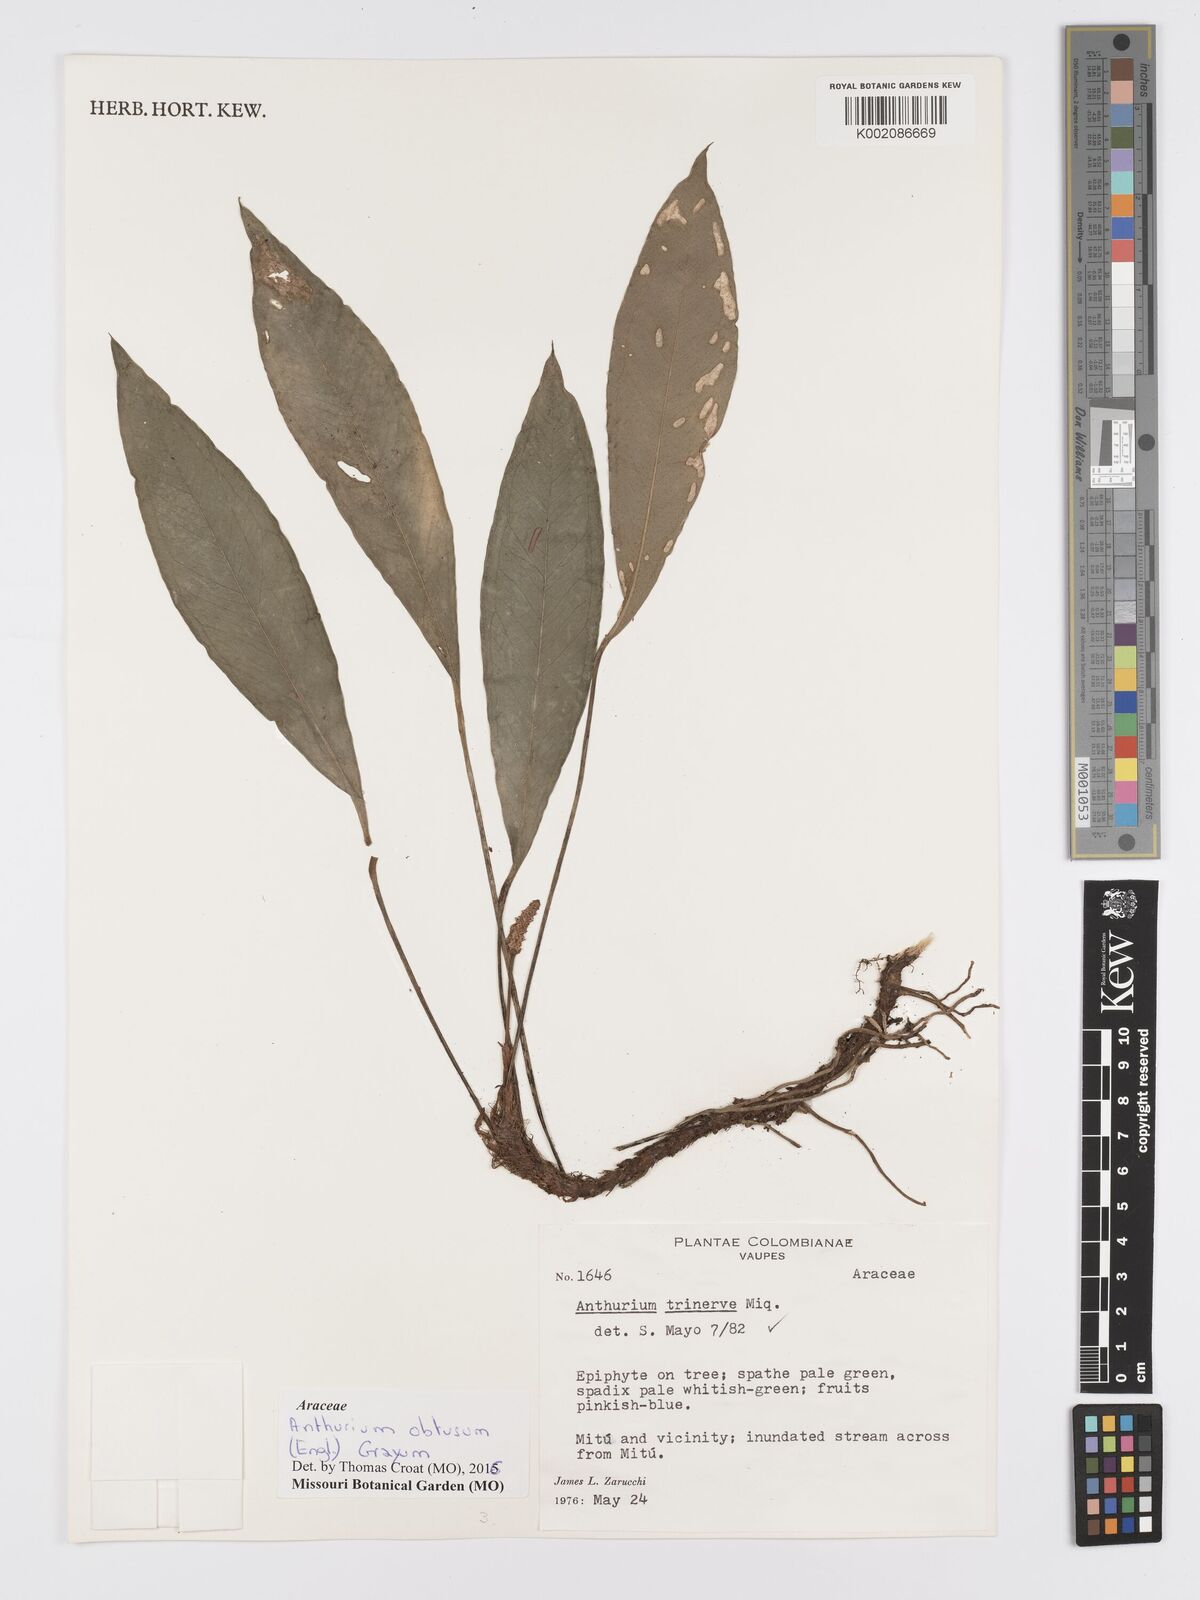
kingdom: Plantae
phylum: Tracheophyta
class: Liliopsida
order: Alismatales
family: Araceae
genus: Anthurium
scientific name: Anthurium obtusum
